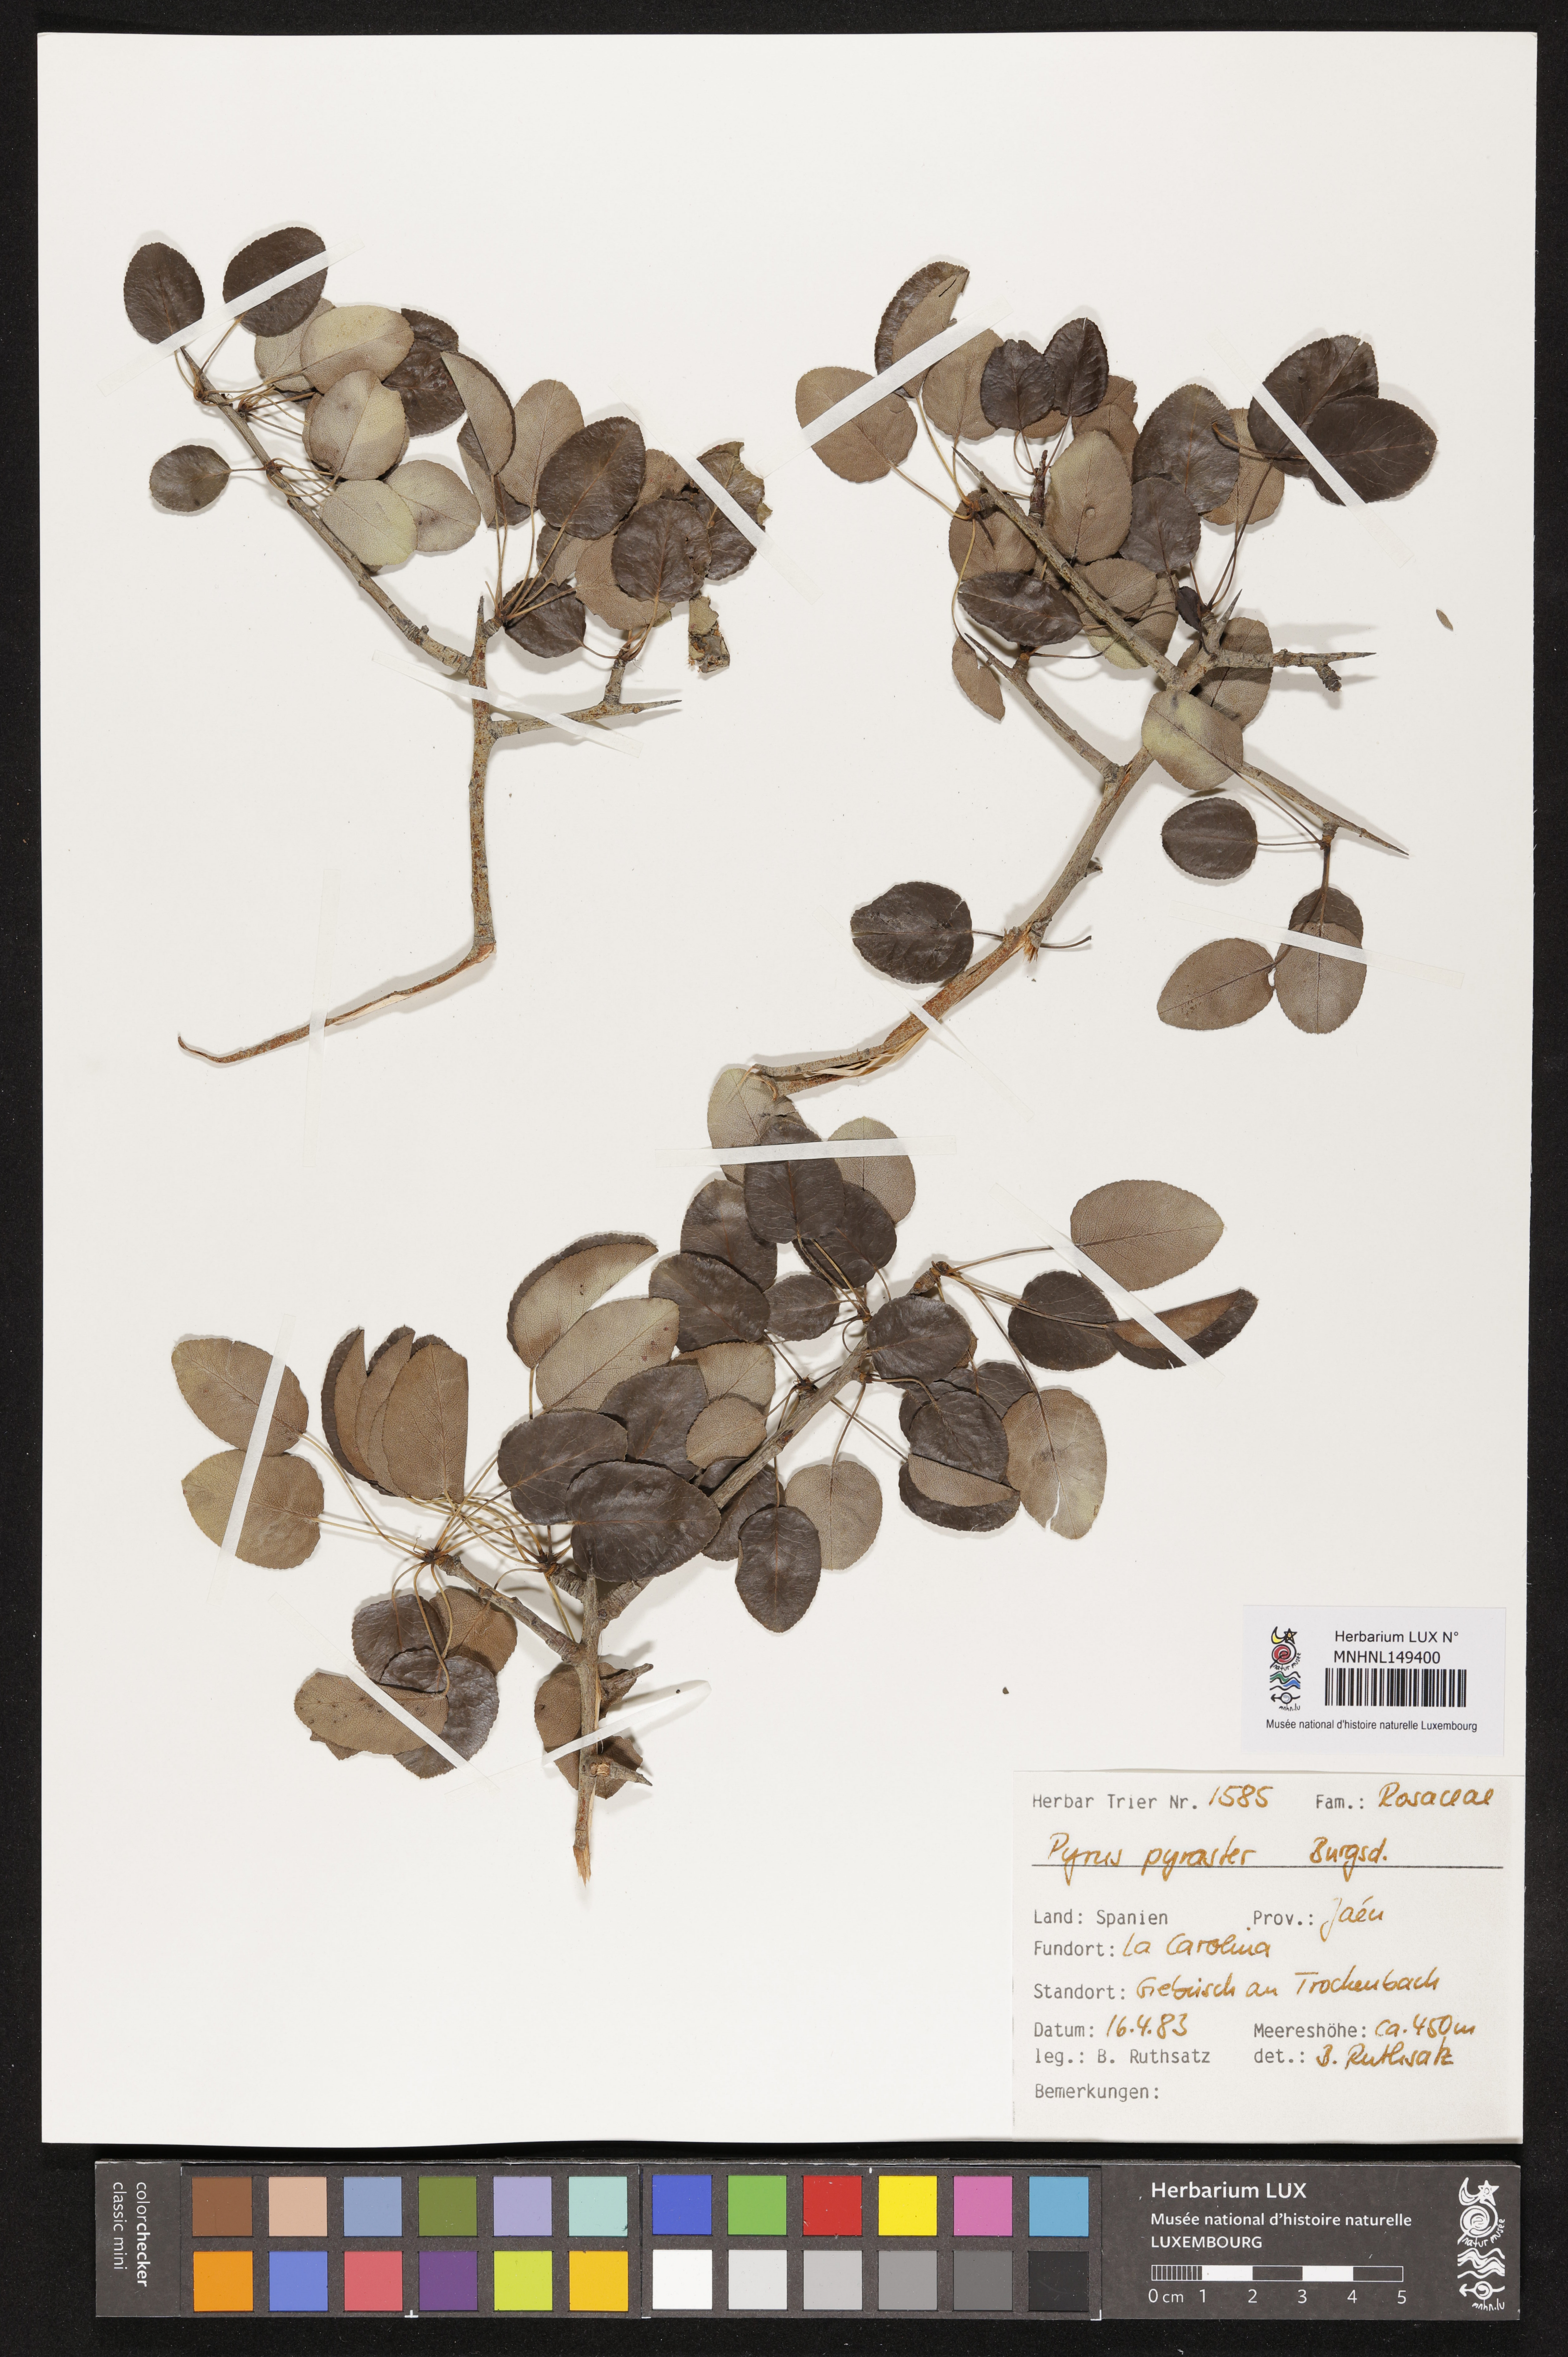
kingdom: Plantae
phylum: Tracheophyta
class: Magnoliopsida
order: Rosales
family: Rosaceae
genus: Pyrus
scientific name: Pyrus pyraster
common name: Wild pear
